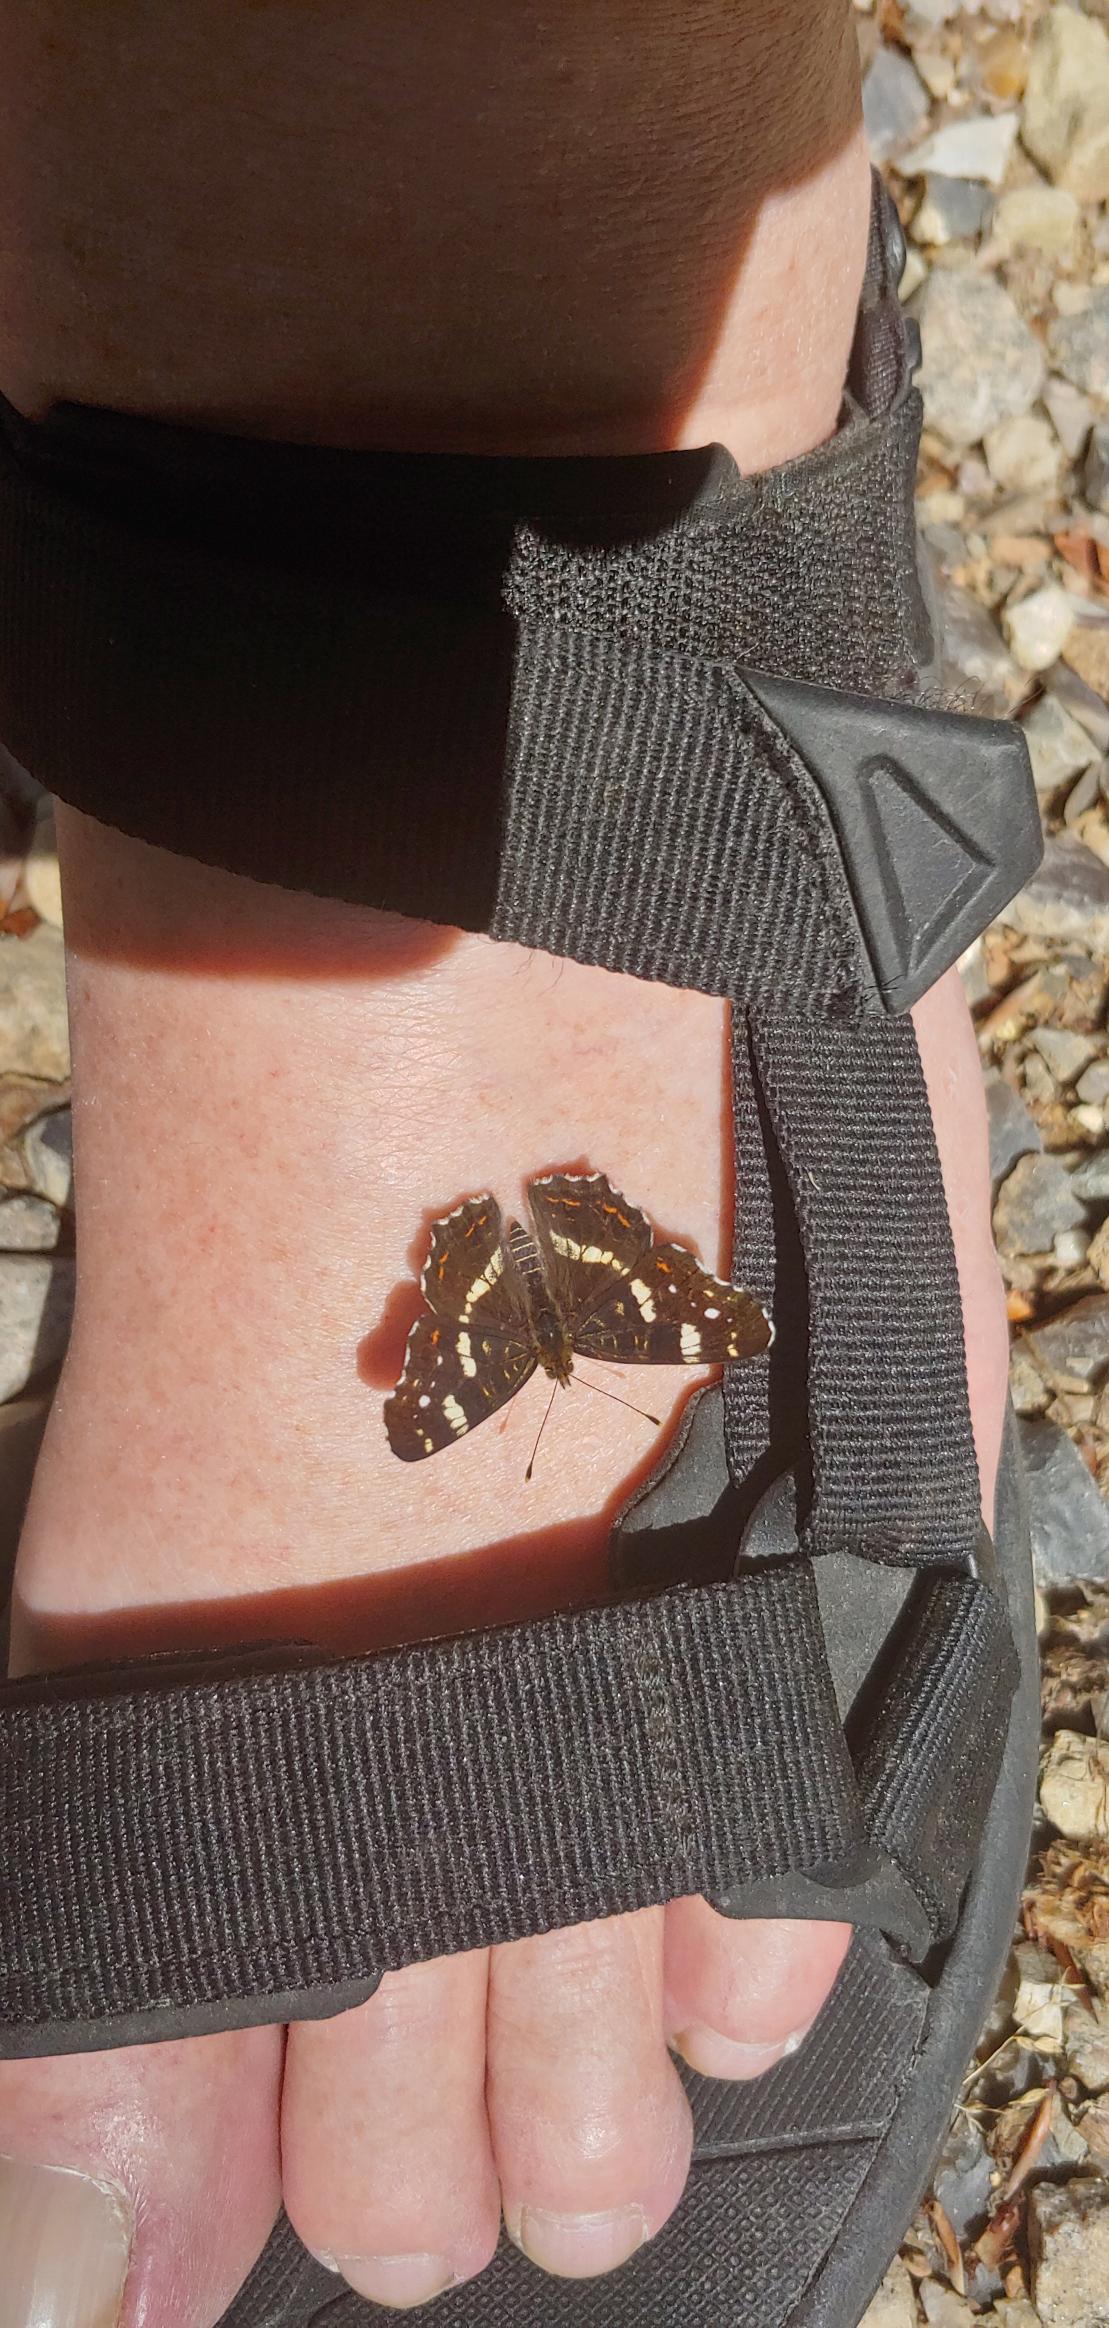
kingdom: Animalia
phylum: Arthropoda
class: Insecta
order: Lepidoptera
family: Nymphalidae
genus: Araschnia
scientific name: Araschnia levana
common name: Nældesommerfugl
